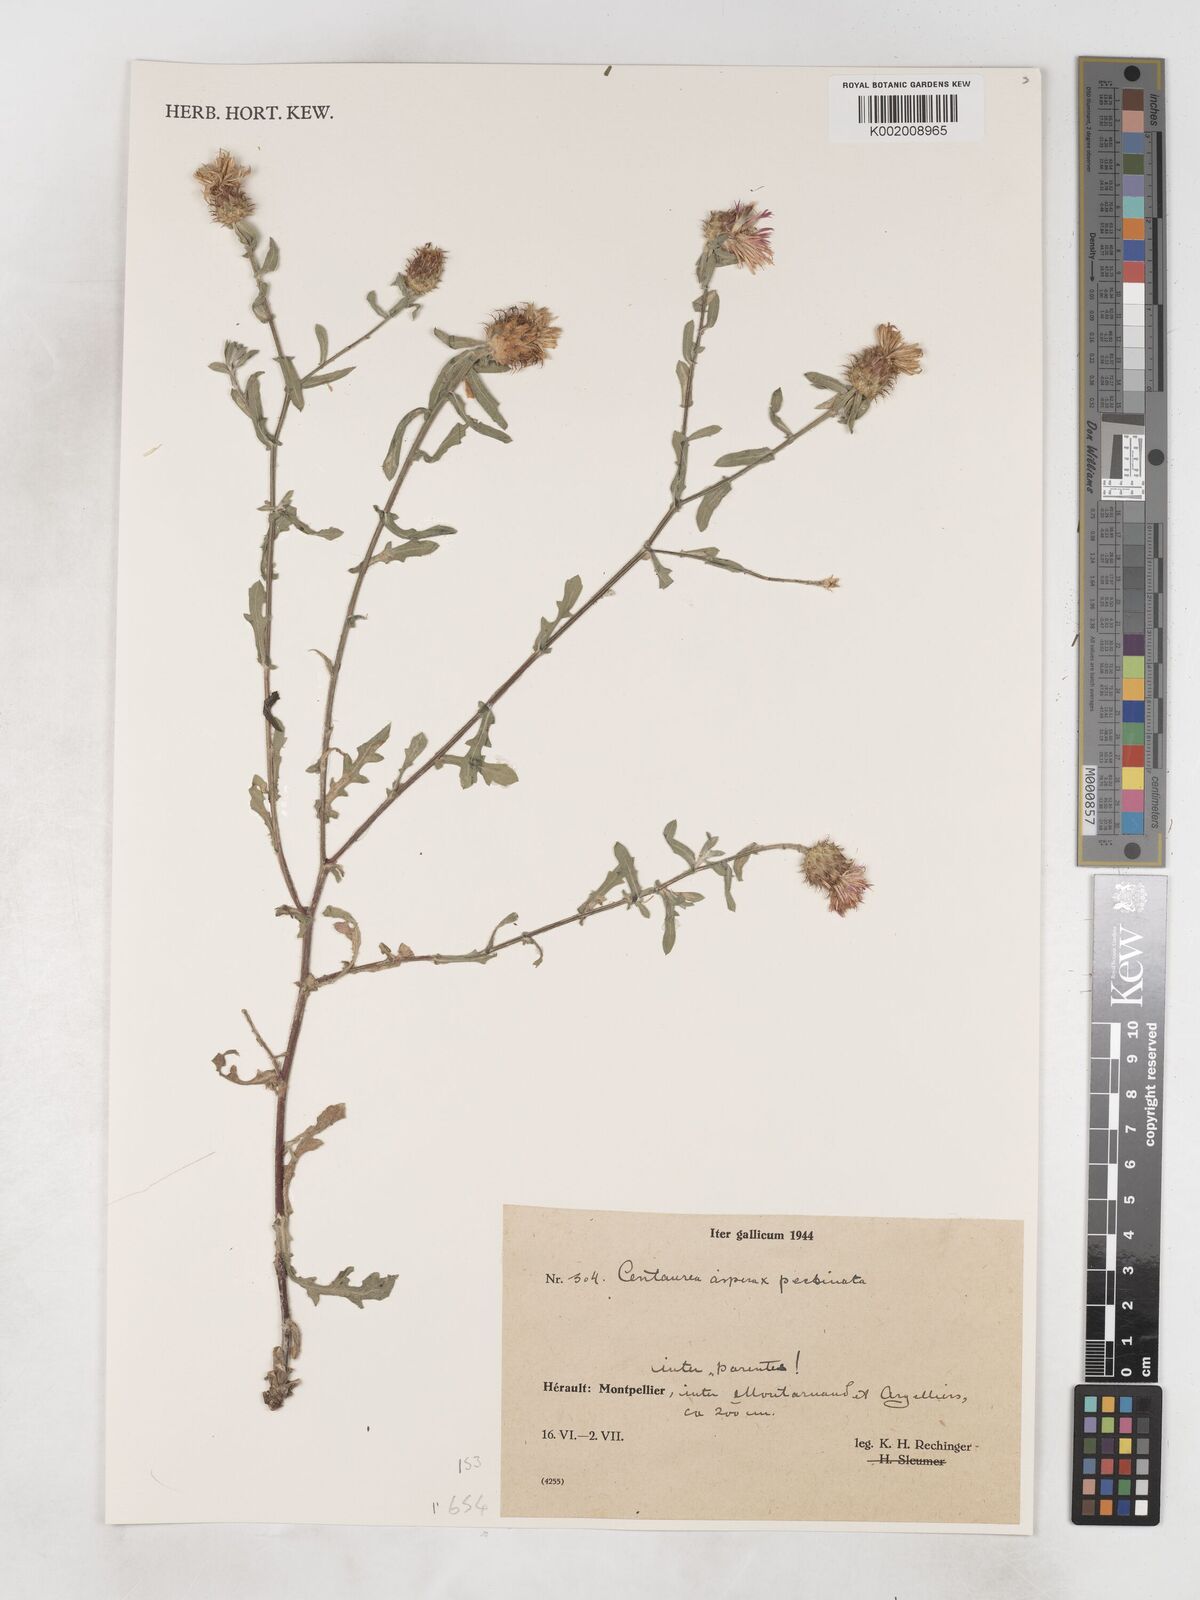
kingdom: Plantae
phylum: Tracheophyta
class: Magnoliopsida
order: Asterales
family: Asteraceae
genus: Centaurea
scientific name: Centaurea
